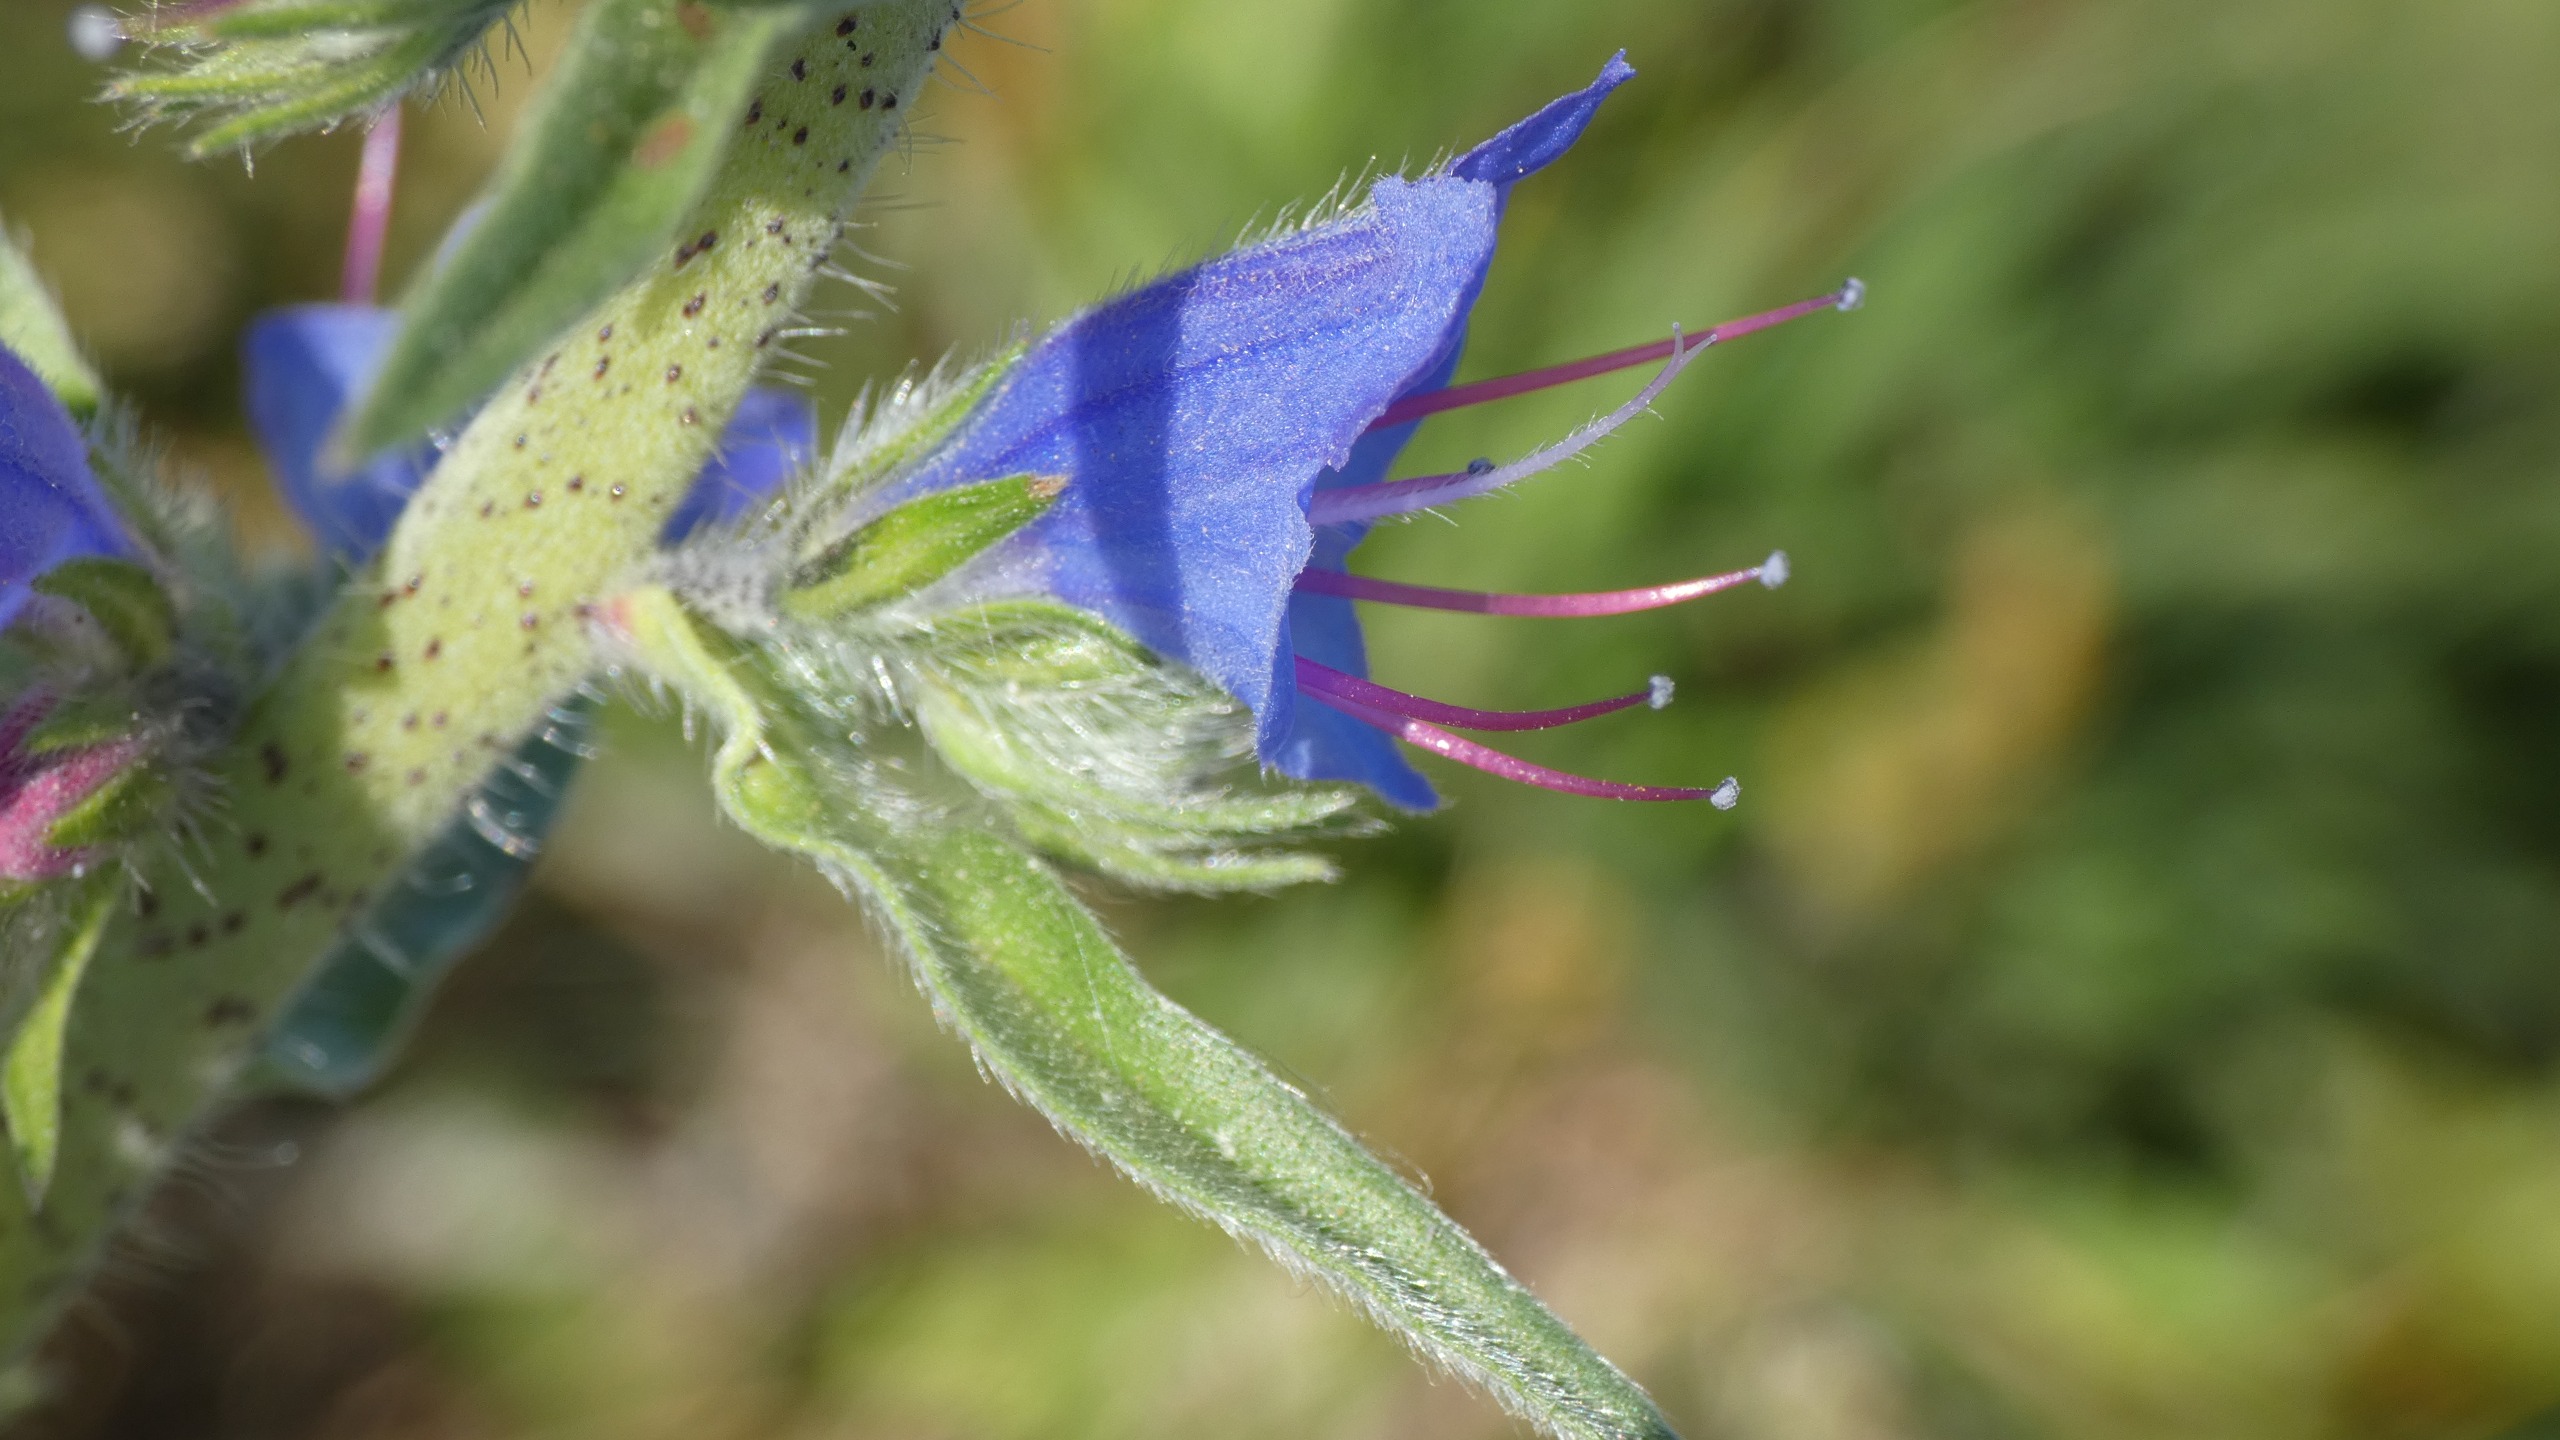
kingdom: Plantae
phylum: Tracheophyta
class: Magnoliopsida
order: Boraginales
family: Boraginaceae
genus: Echium
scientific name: Echium vulgare
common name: Slangehoved
